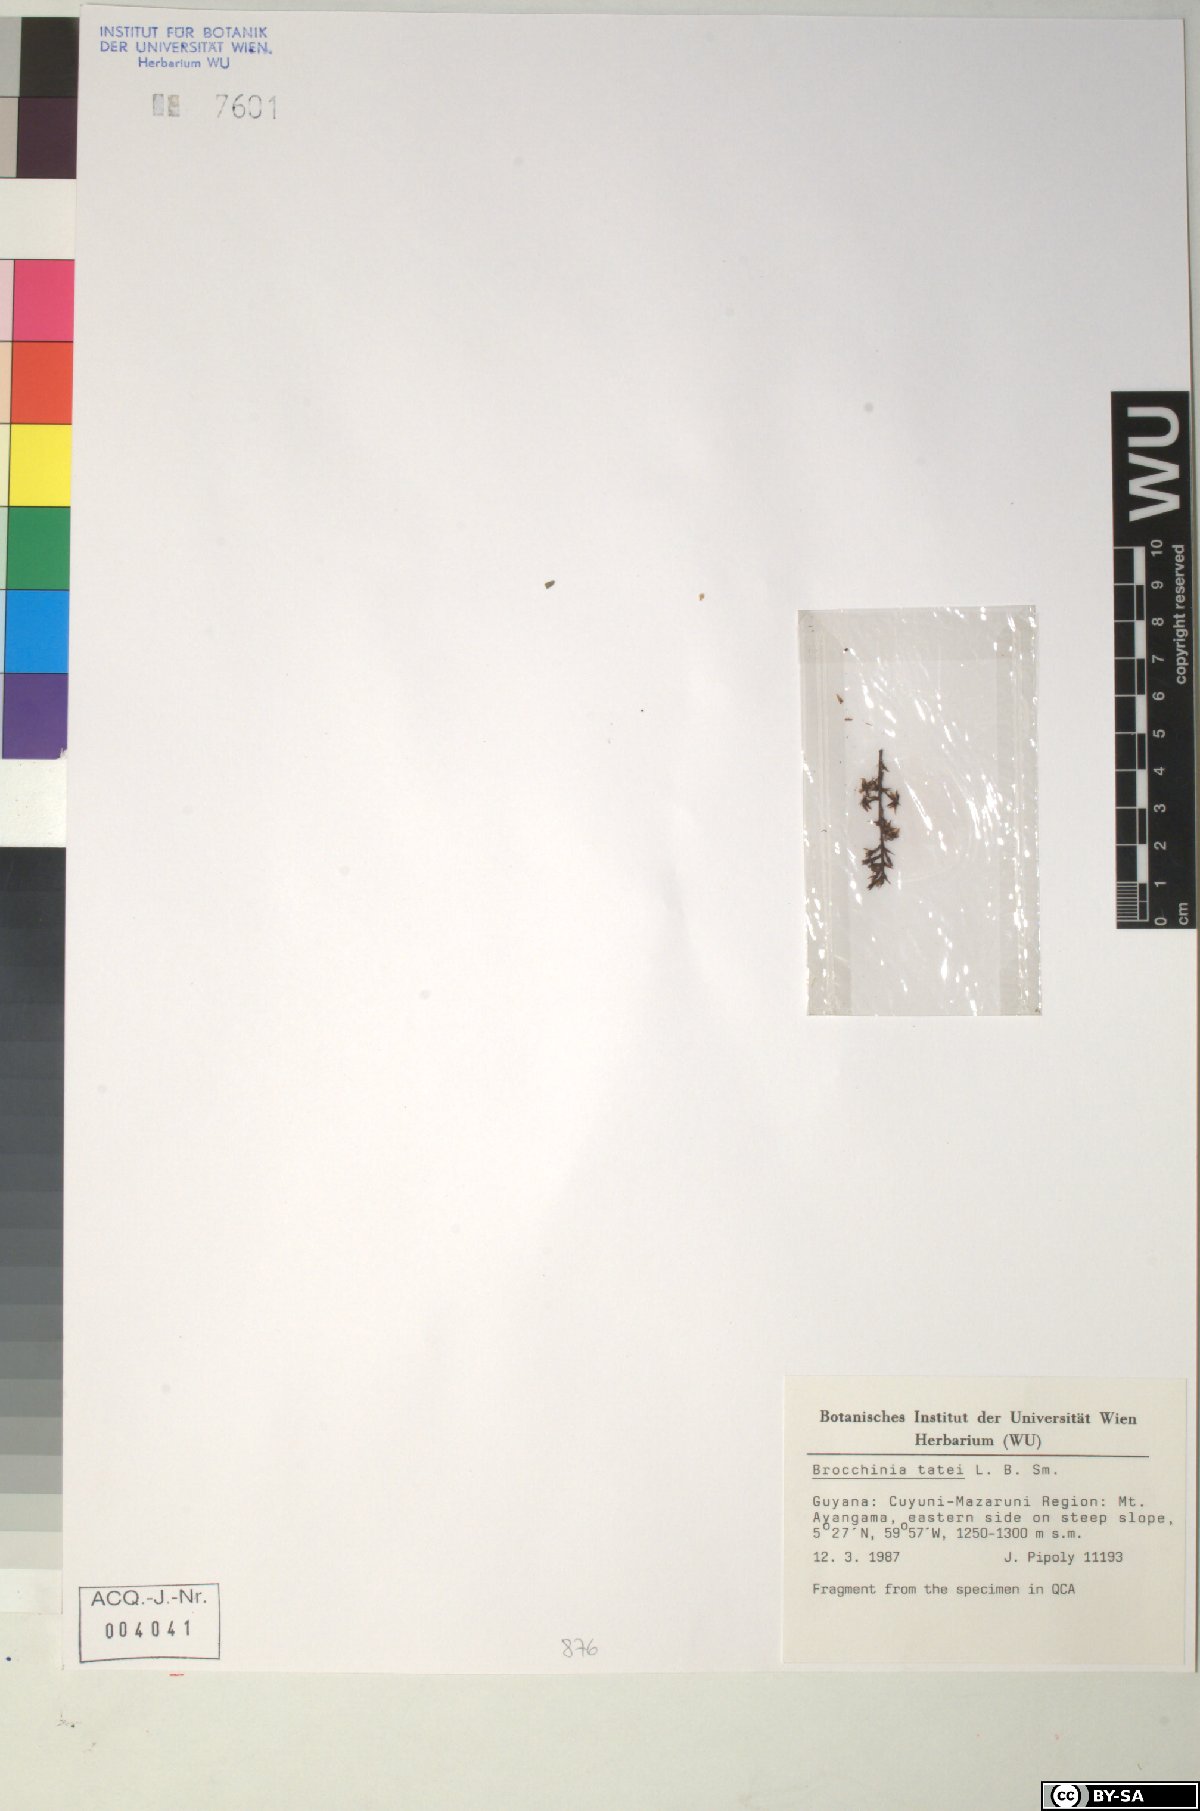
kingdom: Plantae
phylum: Tracheophyta
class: Liliopsida
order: Poales
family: Bromeliaceae
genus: Brocchinia
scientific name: Brocchinia tatei
